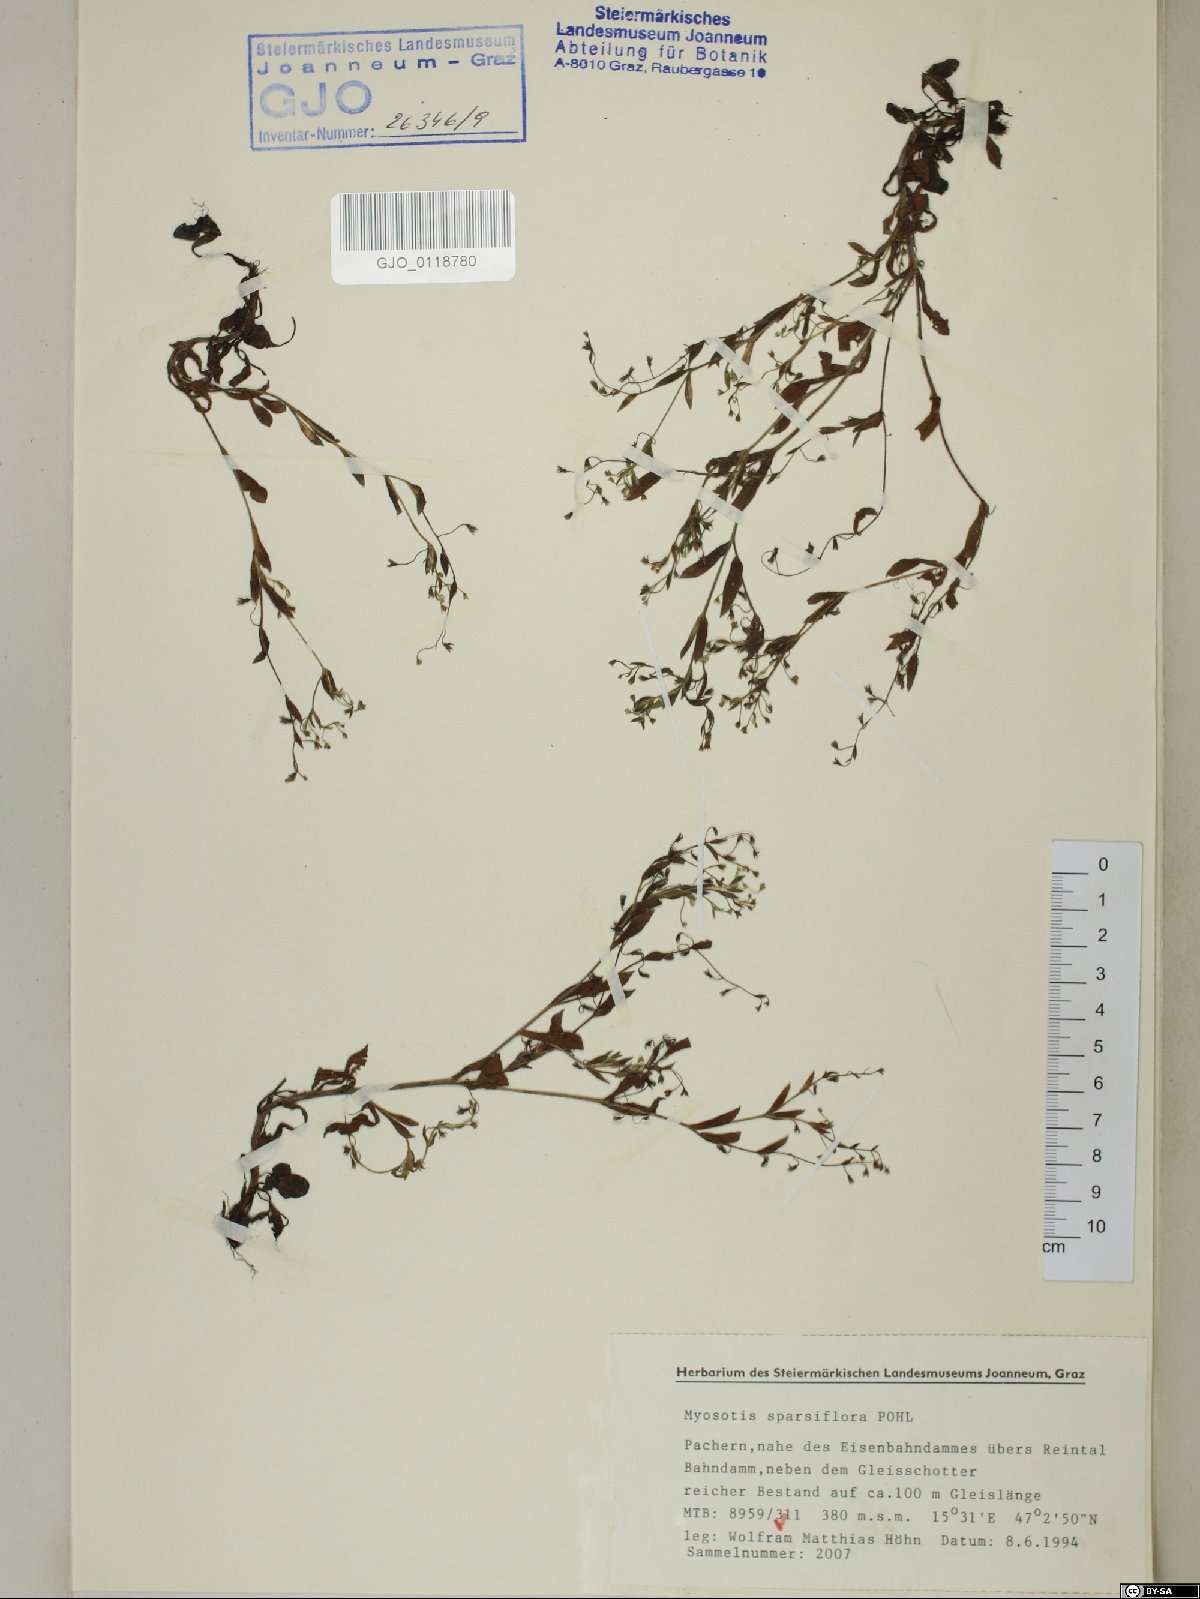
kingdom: Plantae
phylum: Tracheophyta
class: Magnoliopsida
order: Boraginales
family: Boraginaceae
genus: Myosotis
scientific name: Myosotis sparsiflora
